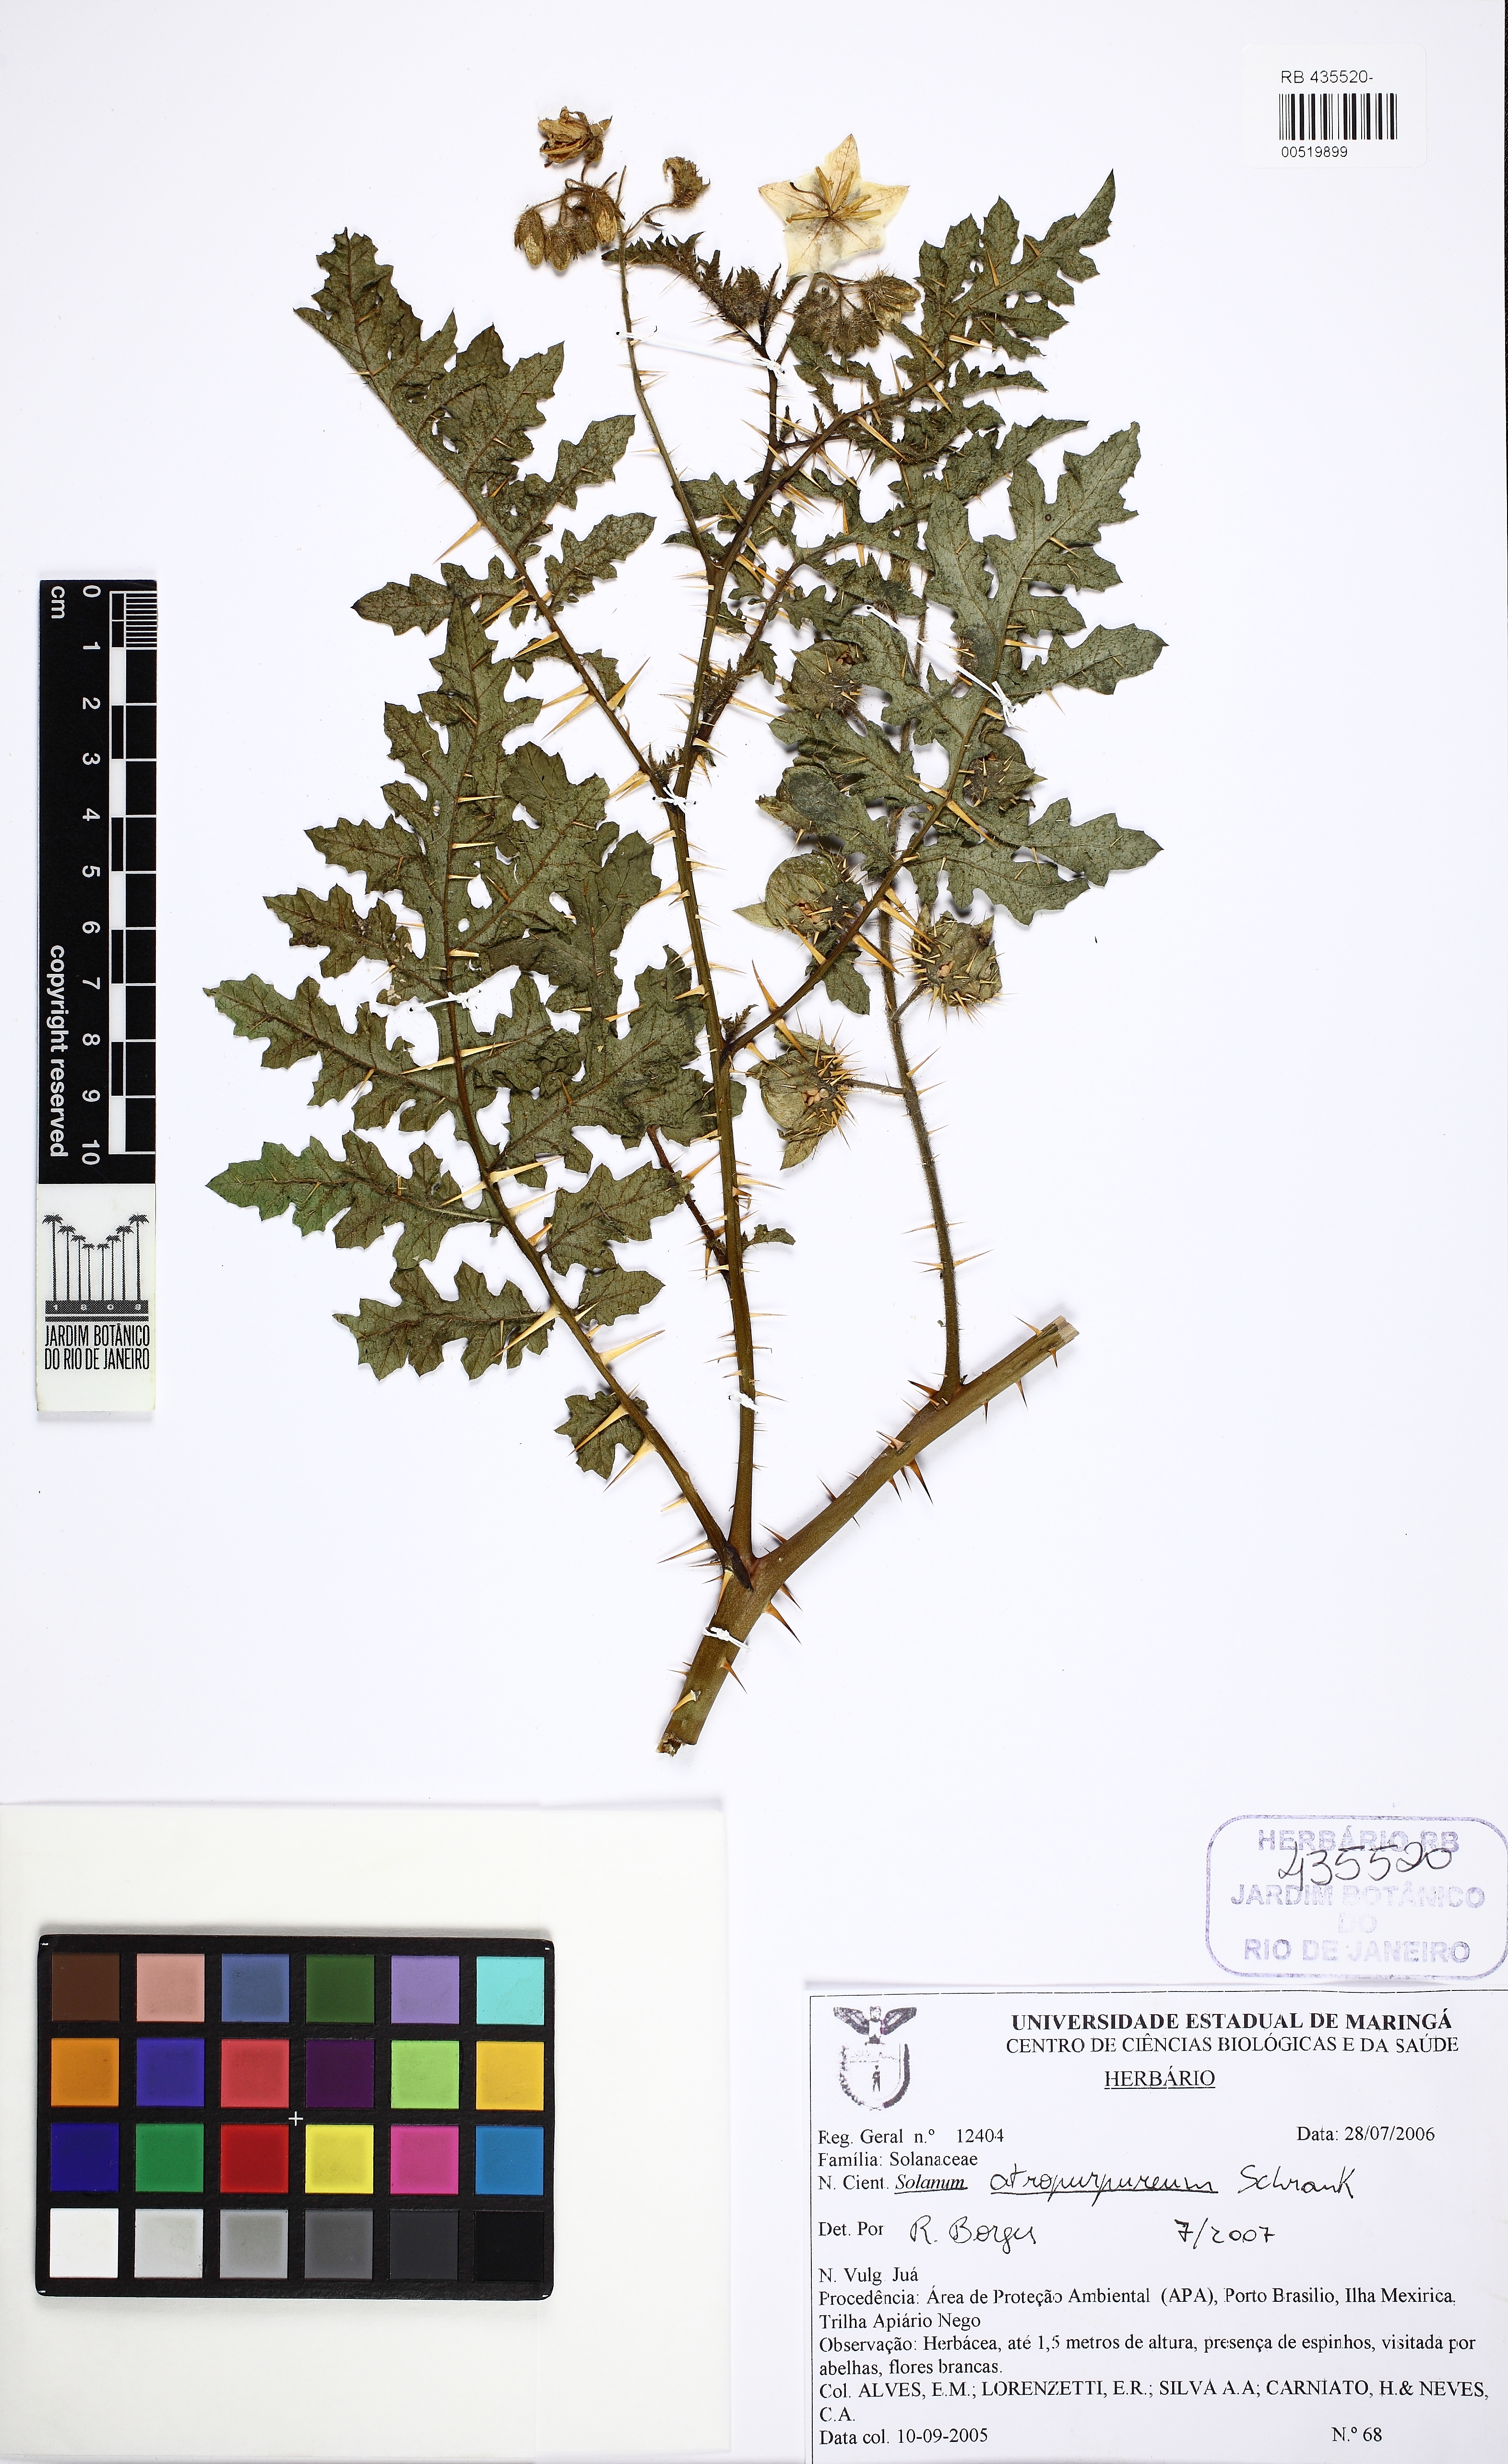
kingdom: Plantae
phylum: Tracheophyta
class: Magnoliopsida
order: Solanales
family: Solanaceae
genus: Solanum
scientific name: Solanum atropurpureum
